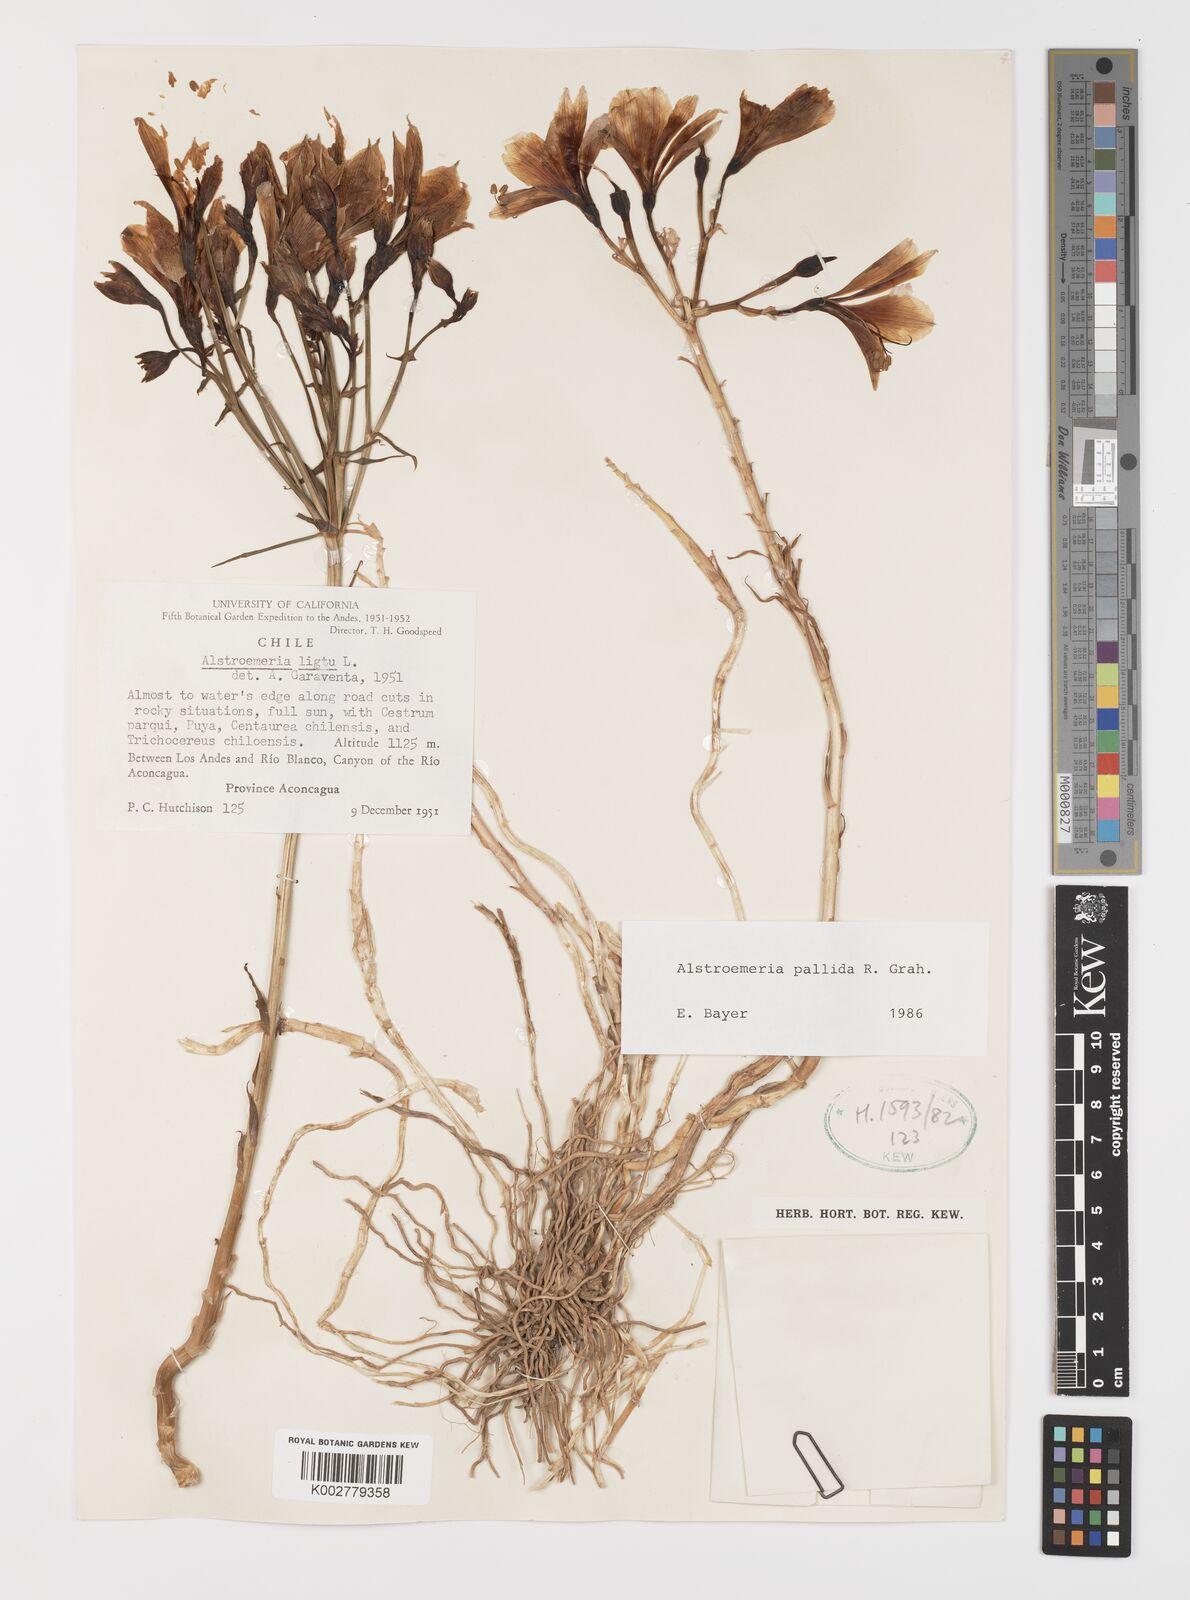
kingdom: Plantae
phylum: Tracheophyta
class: Liliopsida
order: Liliales
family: Alstroemeriaceae
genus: Alstroemeria
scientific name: Alstroemeria pallida
